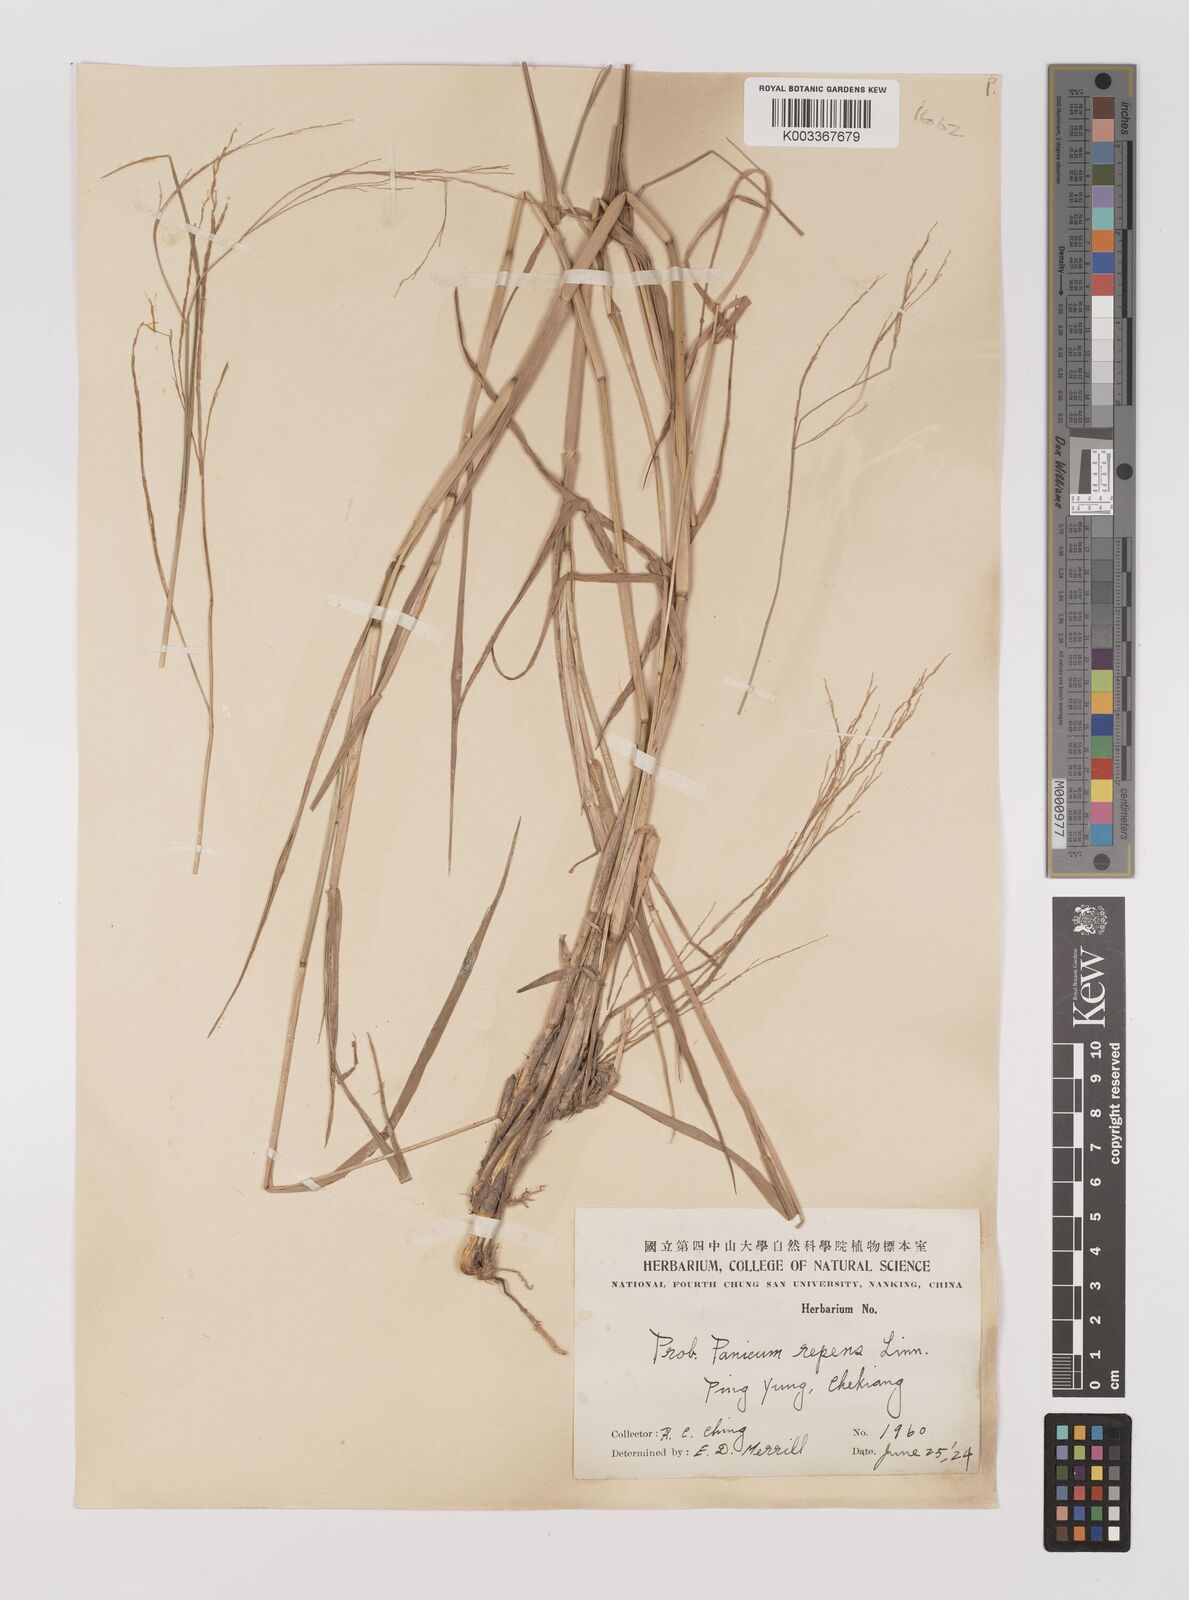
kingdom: Plantae
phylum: Tracheophyta
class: Liliopsida
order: Poales
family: Poaceae
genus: Panicum
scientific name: Panicum repens
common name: Torpedo grass
